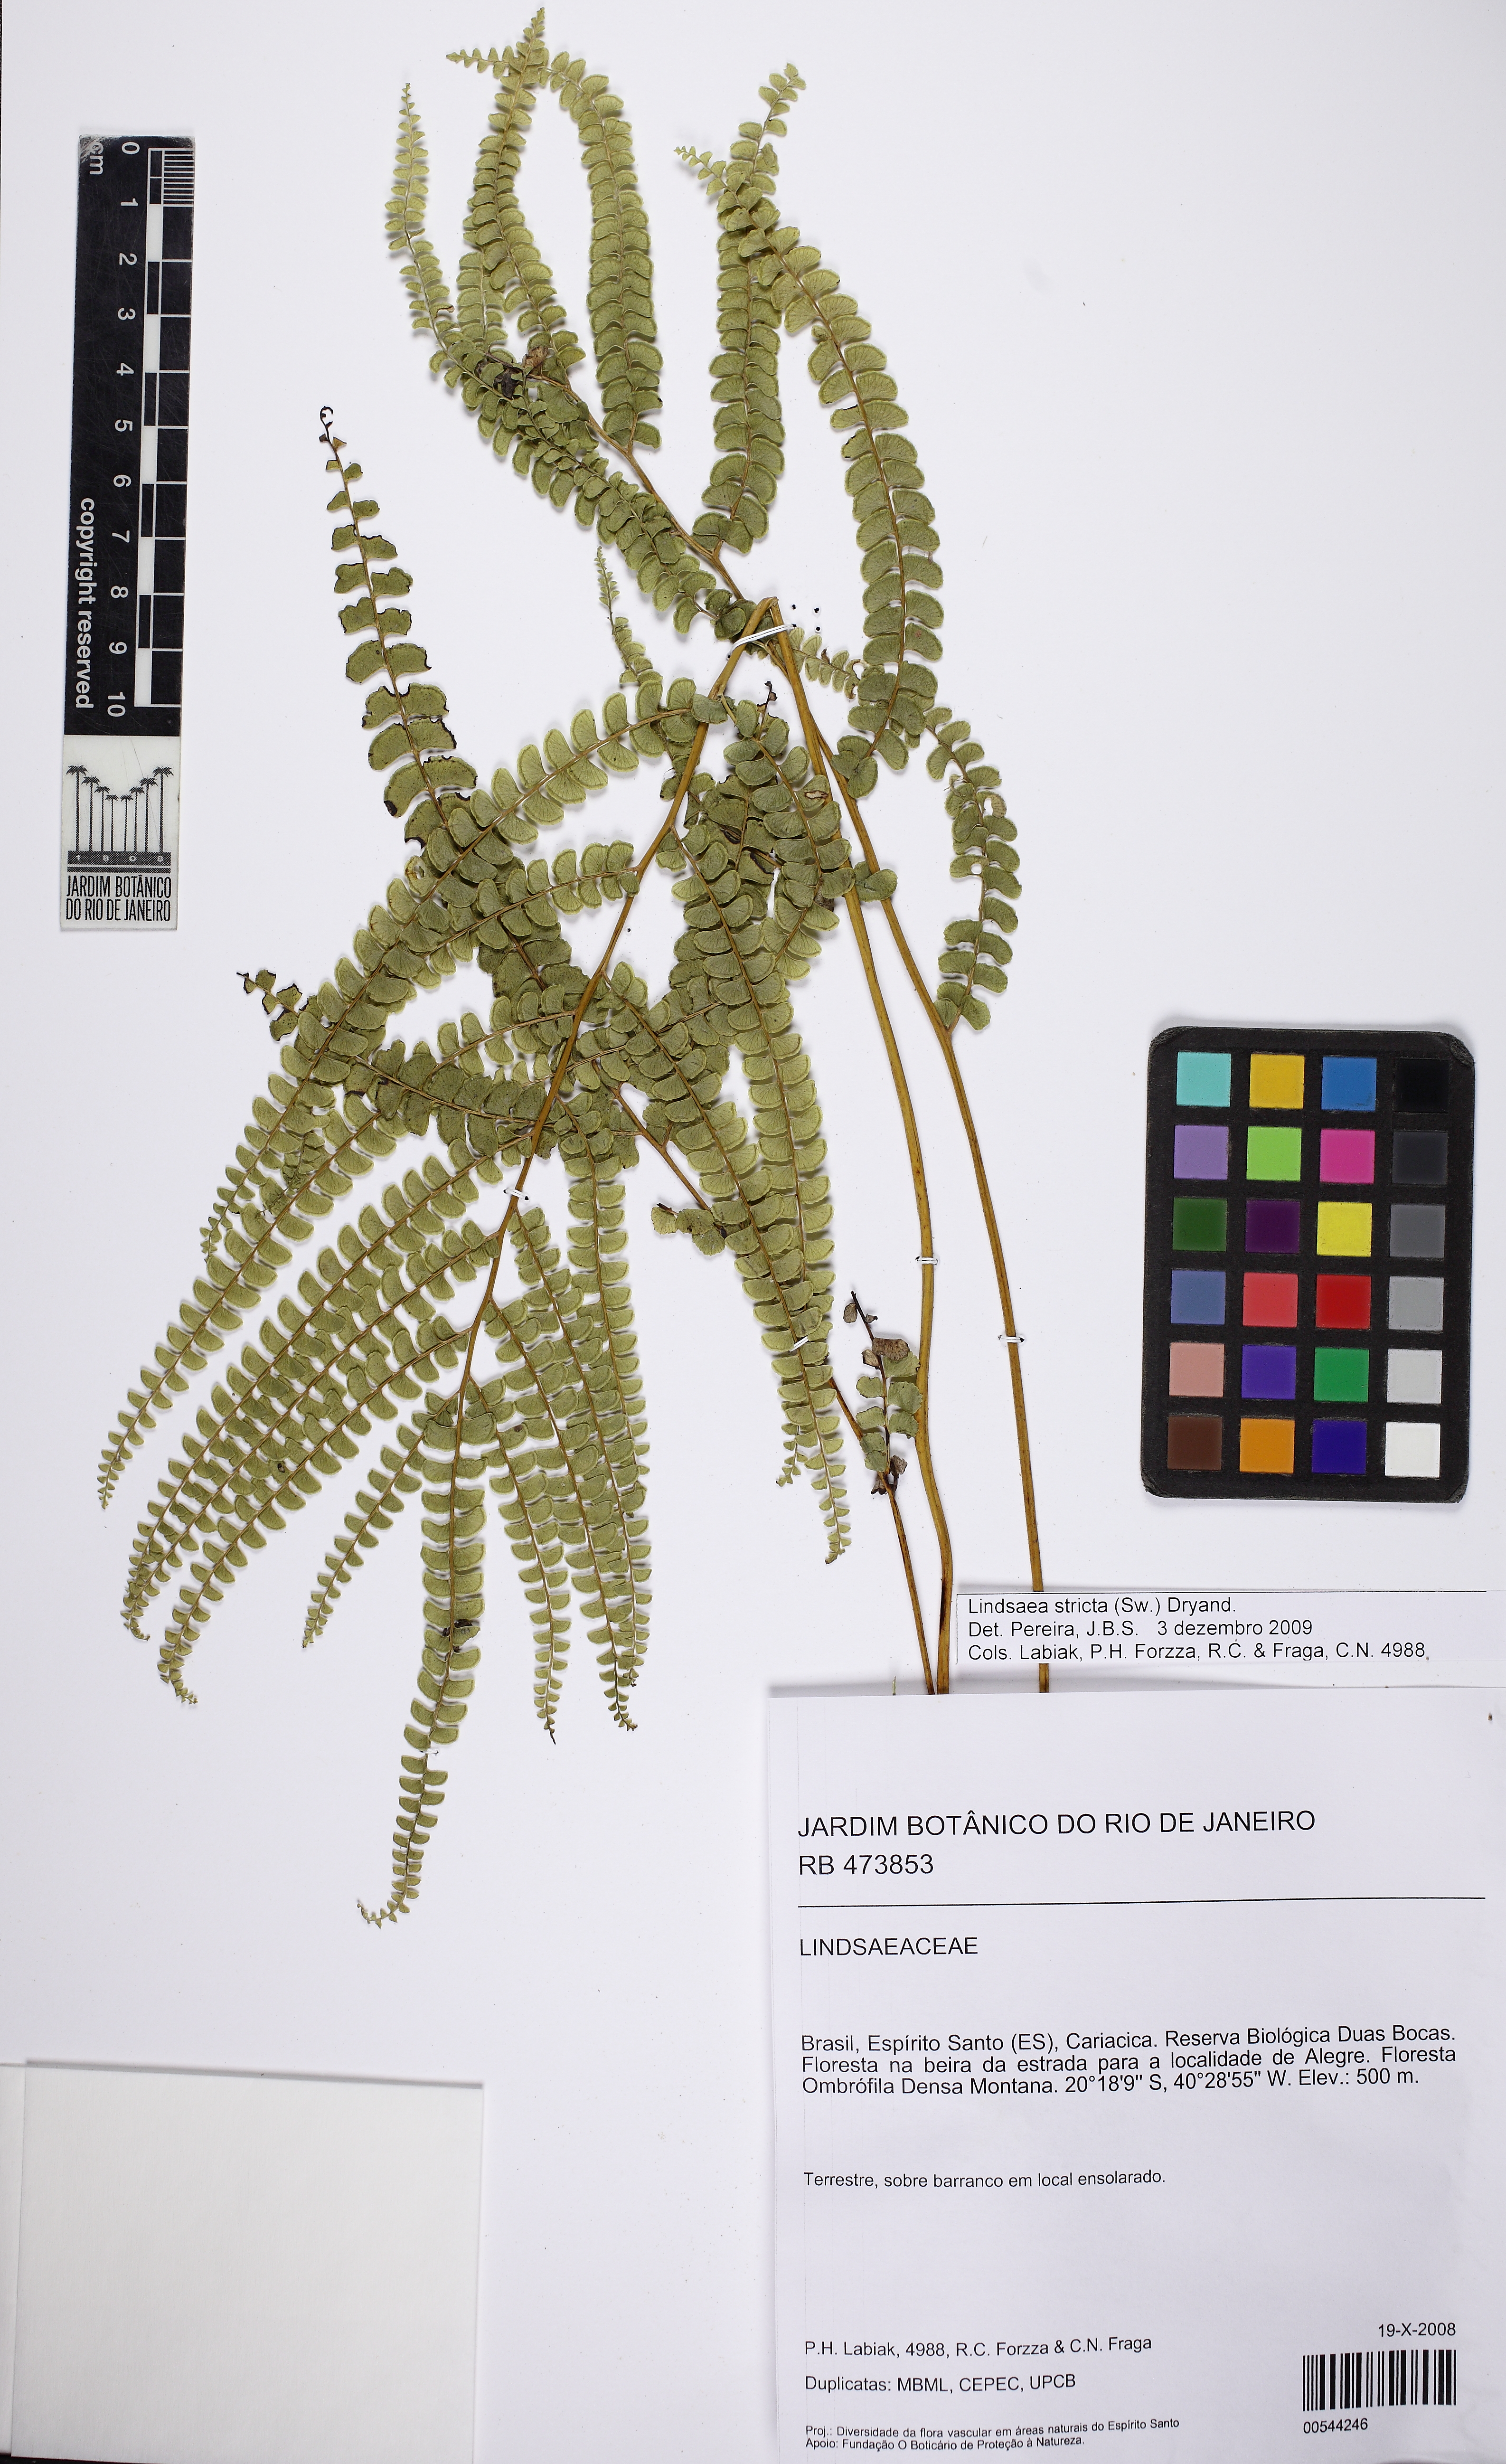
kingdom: Plantae
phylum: Tracheophyta
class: Polypodiopsida
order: Polypodiales
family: Lindsaeaceae
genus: Lindsaea
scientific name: Lindsaea stricta
